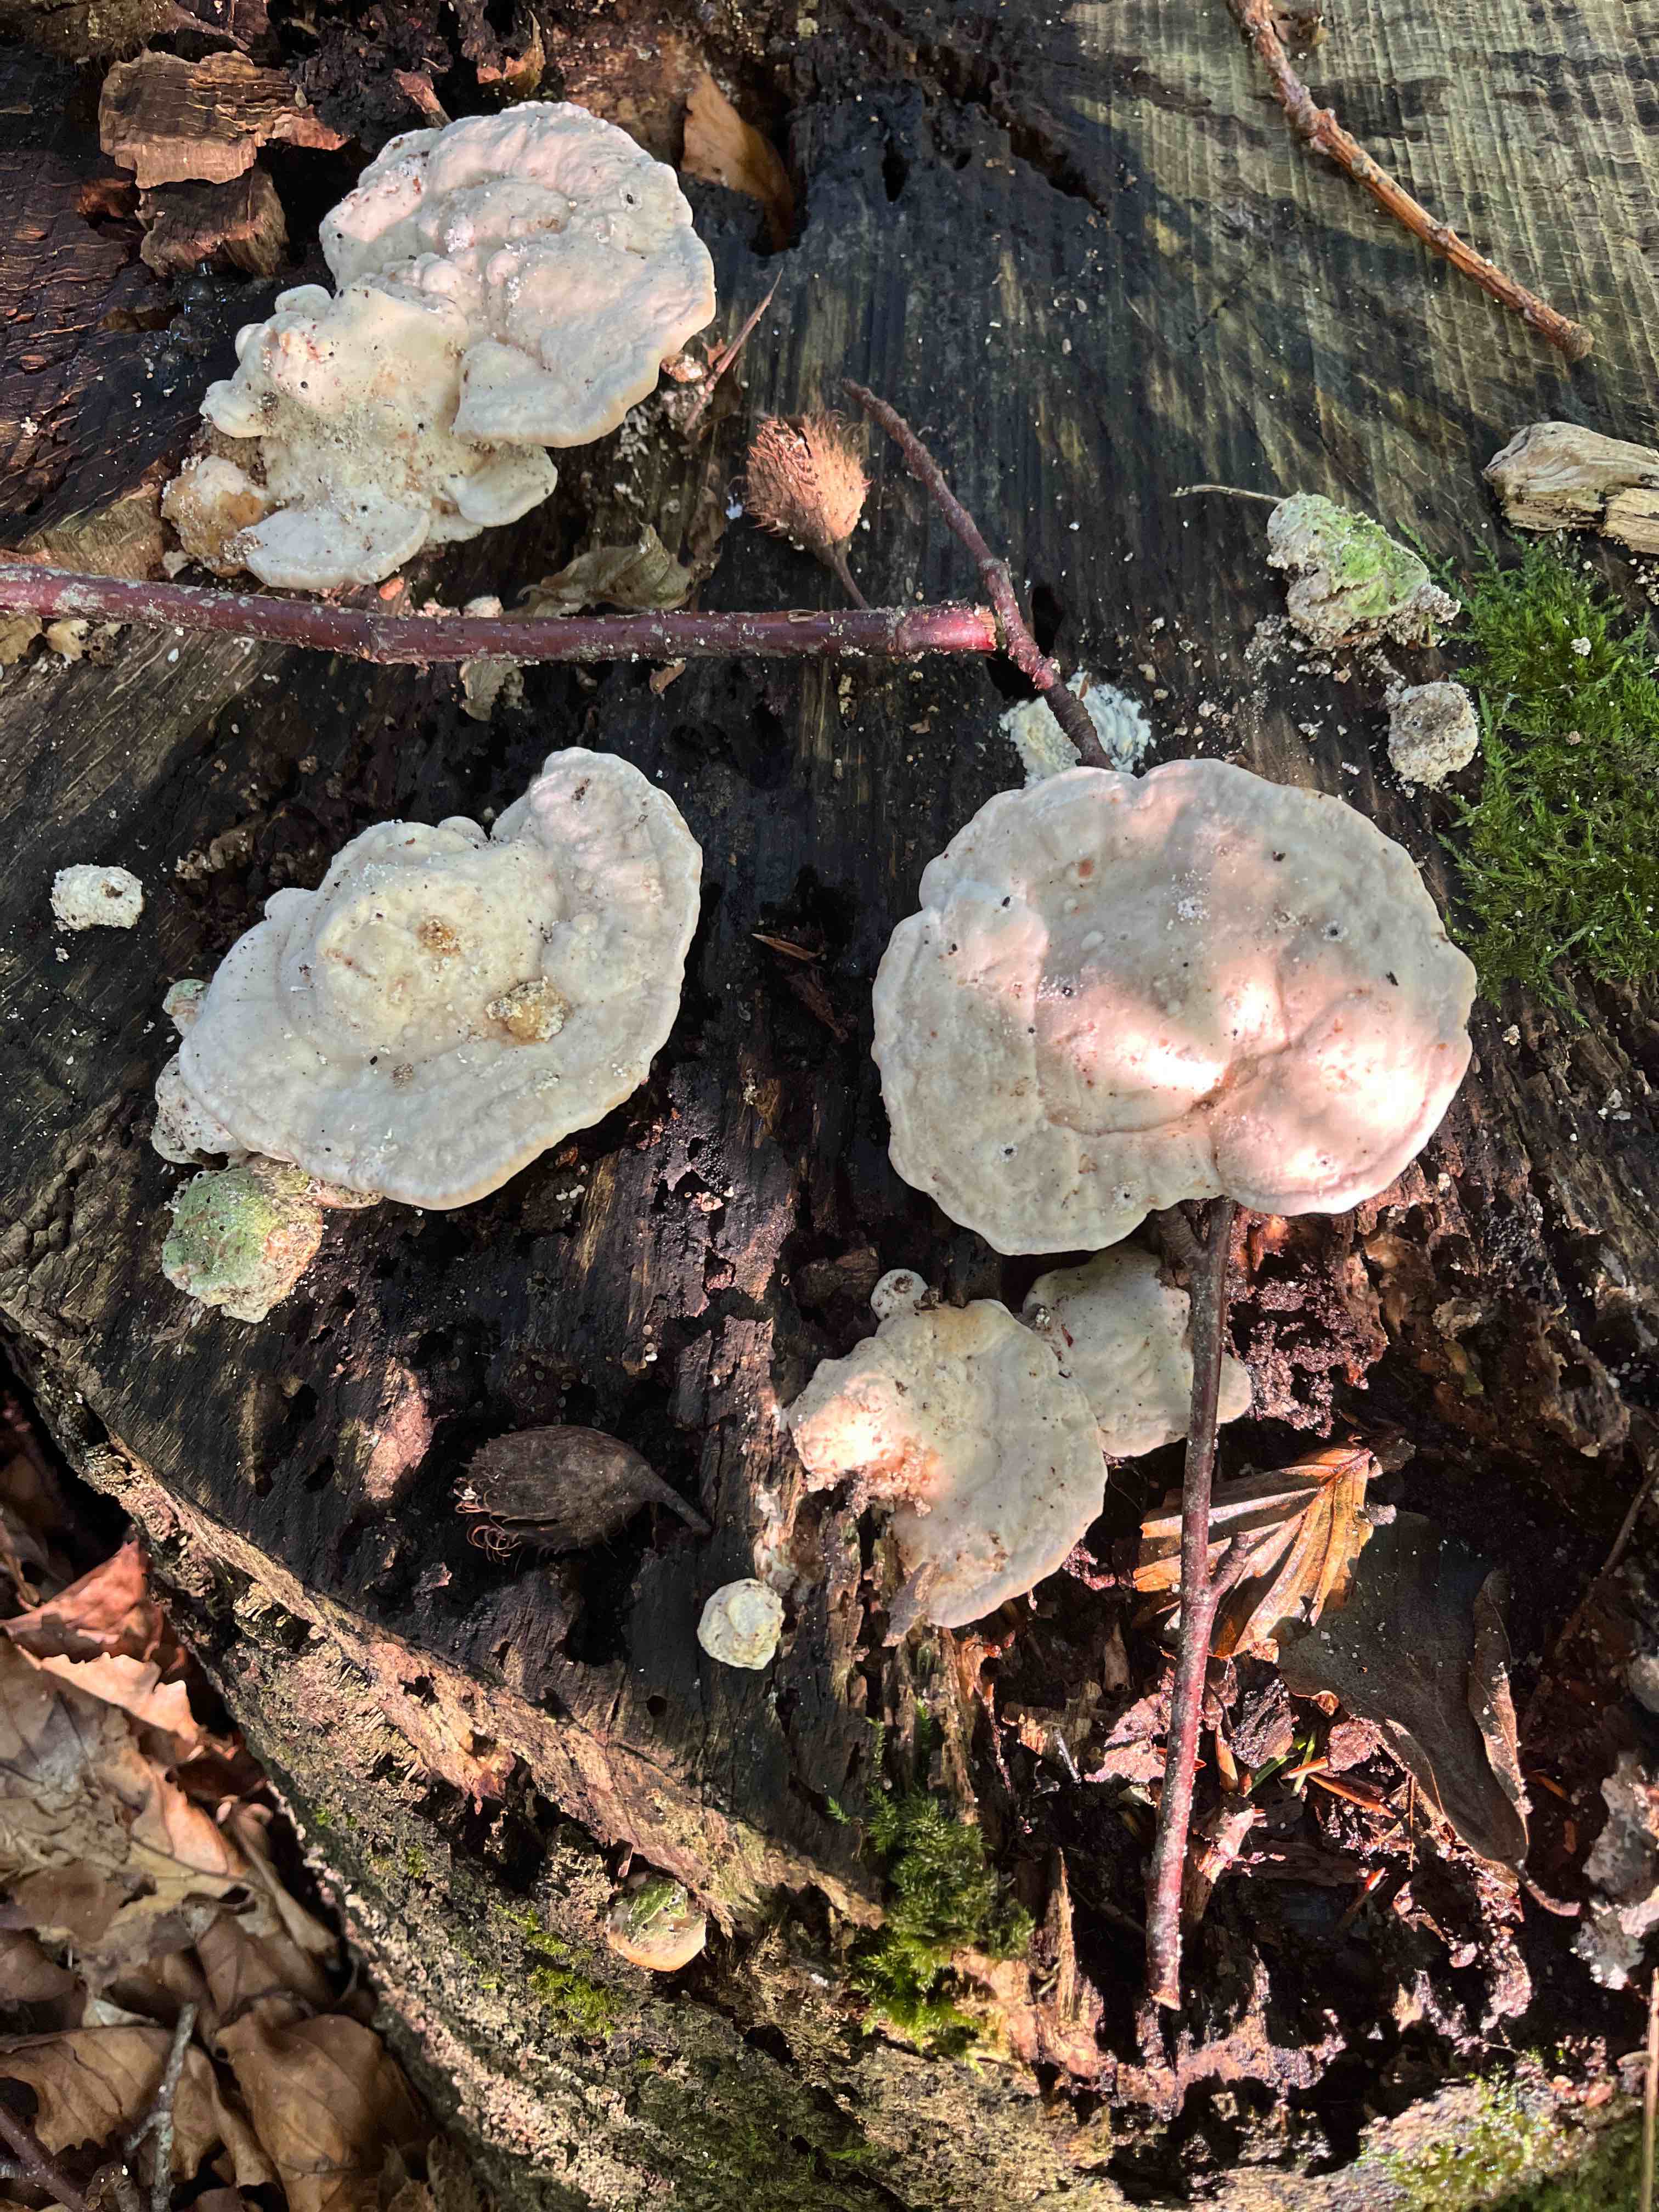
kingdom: Fungi
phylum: Basidiomycota
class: Agaricomycetes
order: Polyporales
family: Polyporaceae
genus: Trametes
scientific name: Trametes gibbosa
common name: puklet læderporesvamp
